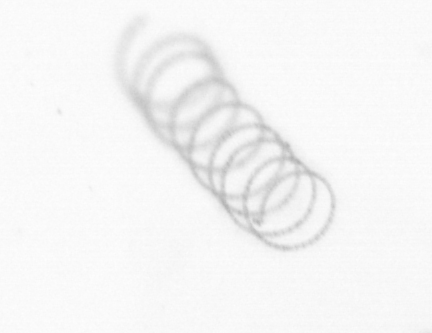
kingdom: Chromista
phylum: Ochrophyta
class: Bacillariophyceae
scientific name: Bacillariophyceae
